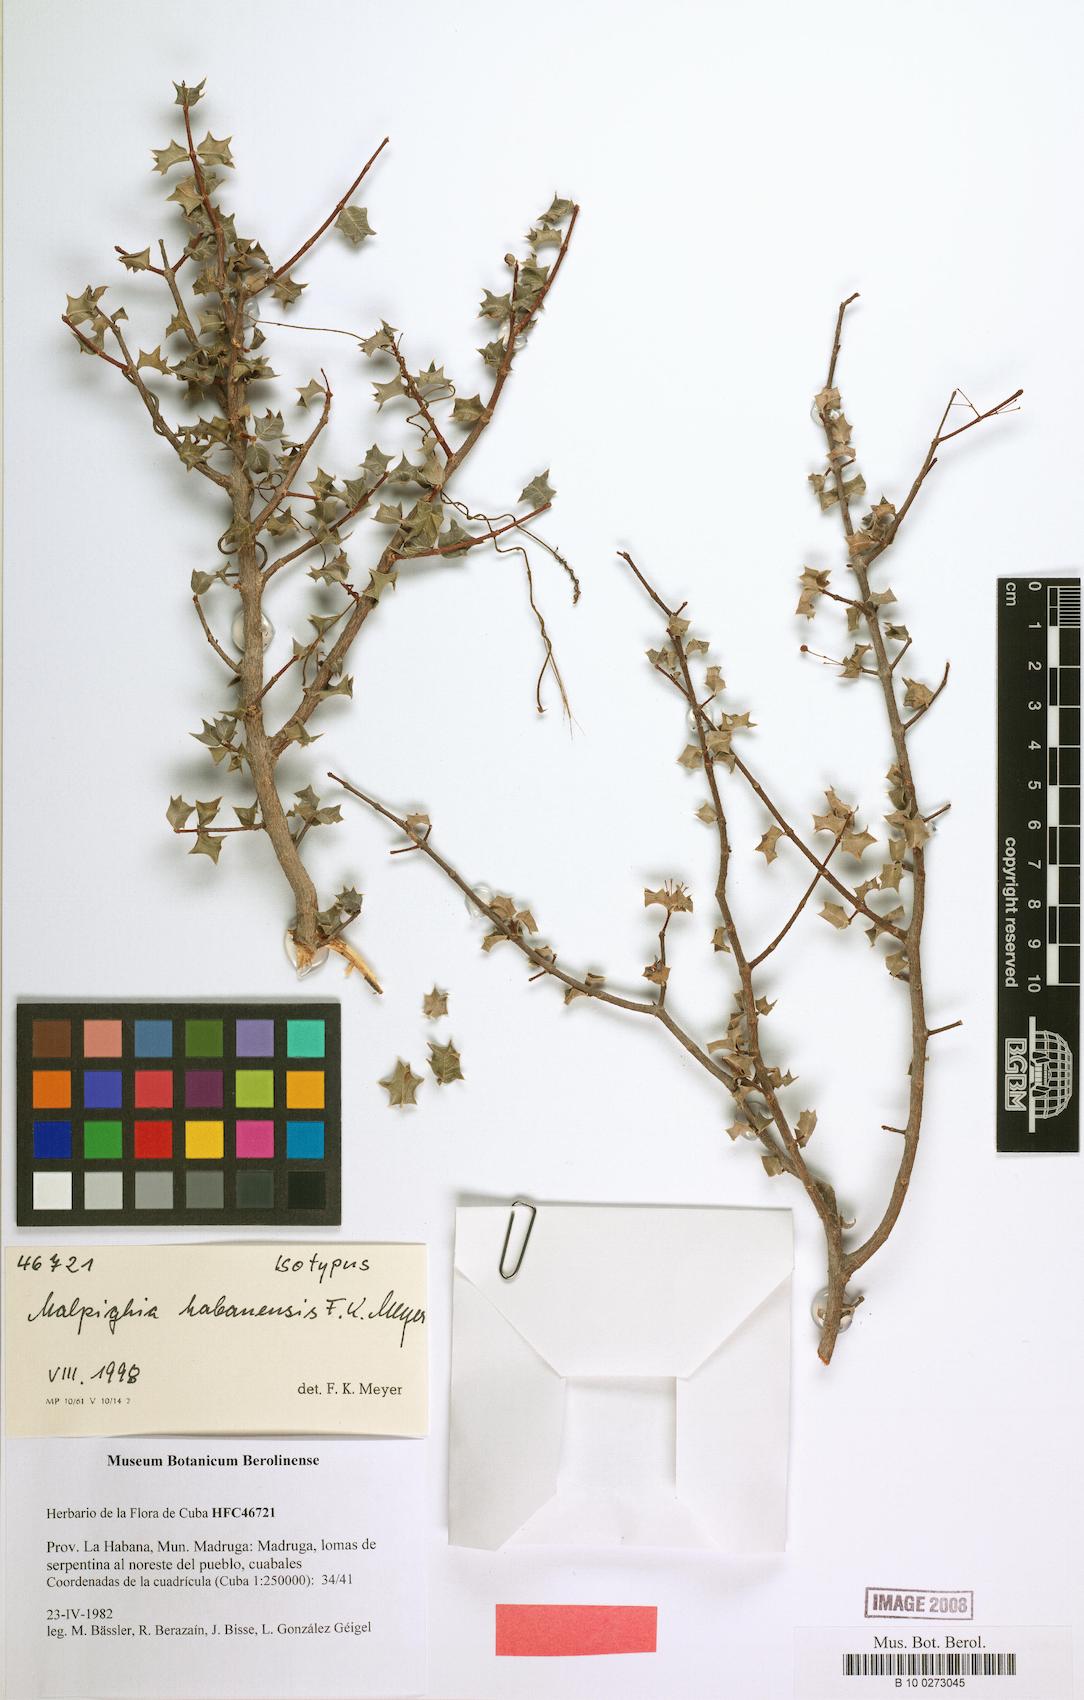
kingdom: Plantae
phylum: Tracheophyta
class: Magnoliopsida
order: Malpighiales
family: Malpighiaceae
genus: Malpighia
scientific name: Malpighia habanensis
